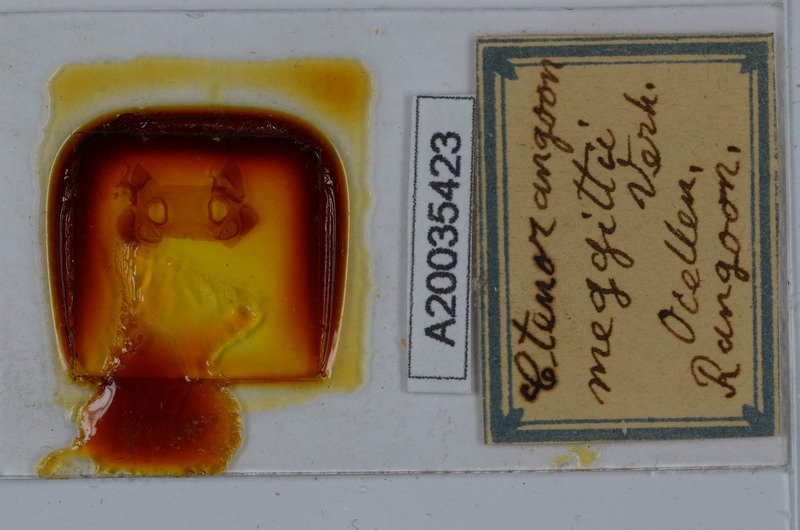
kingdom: Animalia
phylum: Arthropoda
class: Diplopoda
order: Spirostreptida
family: Harpagophoridae
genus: Ctenorangoon
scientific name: Ctenorangoon feae
